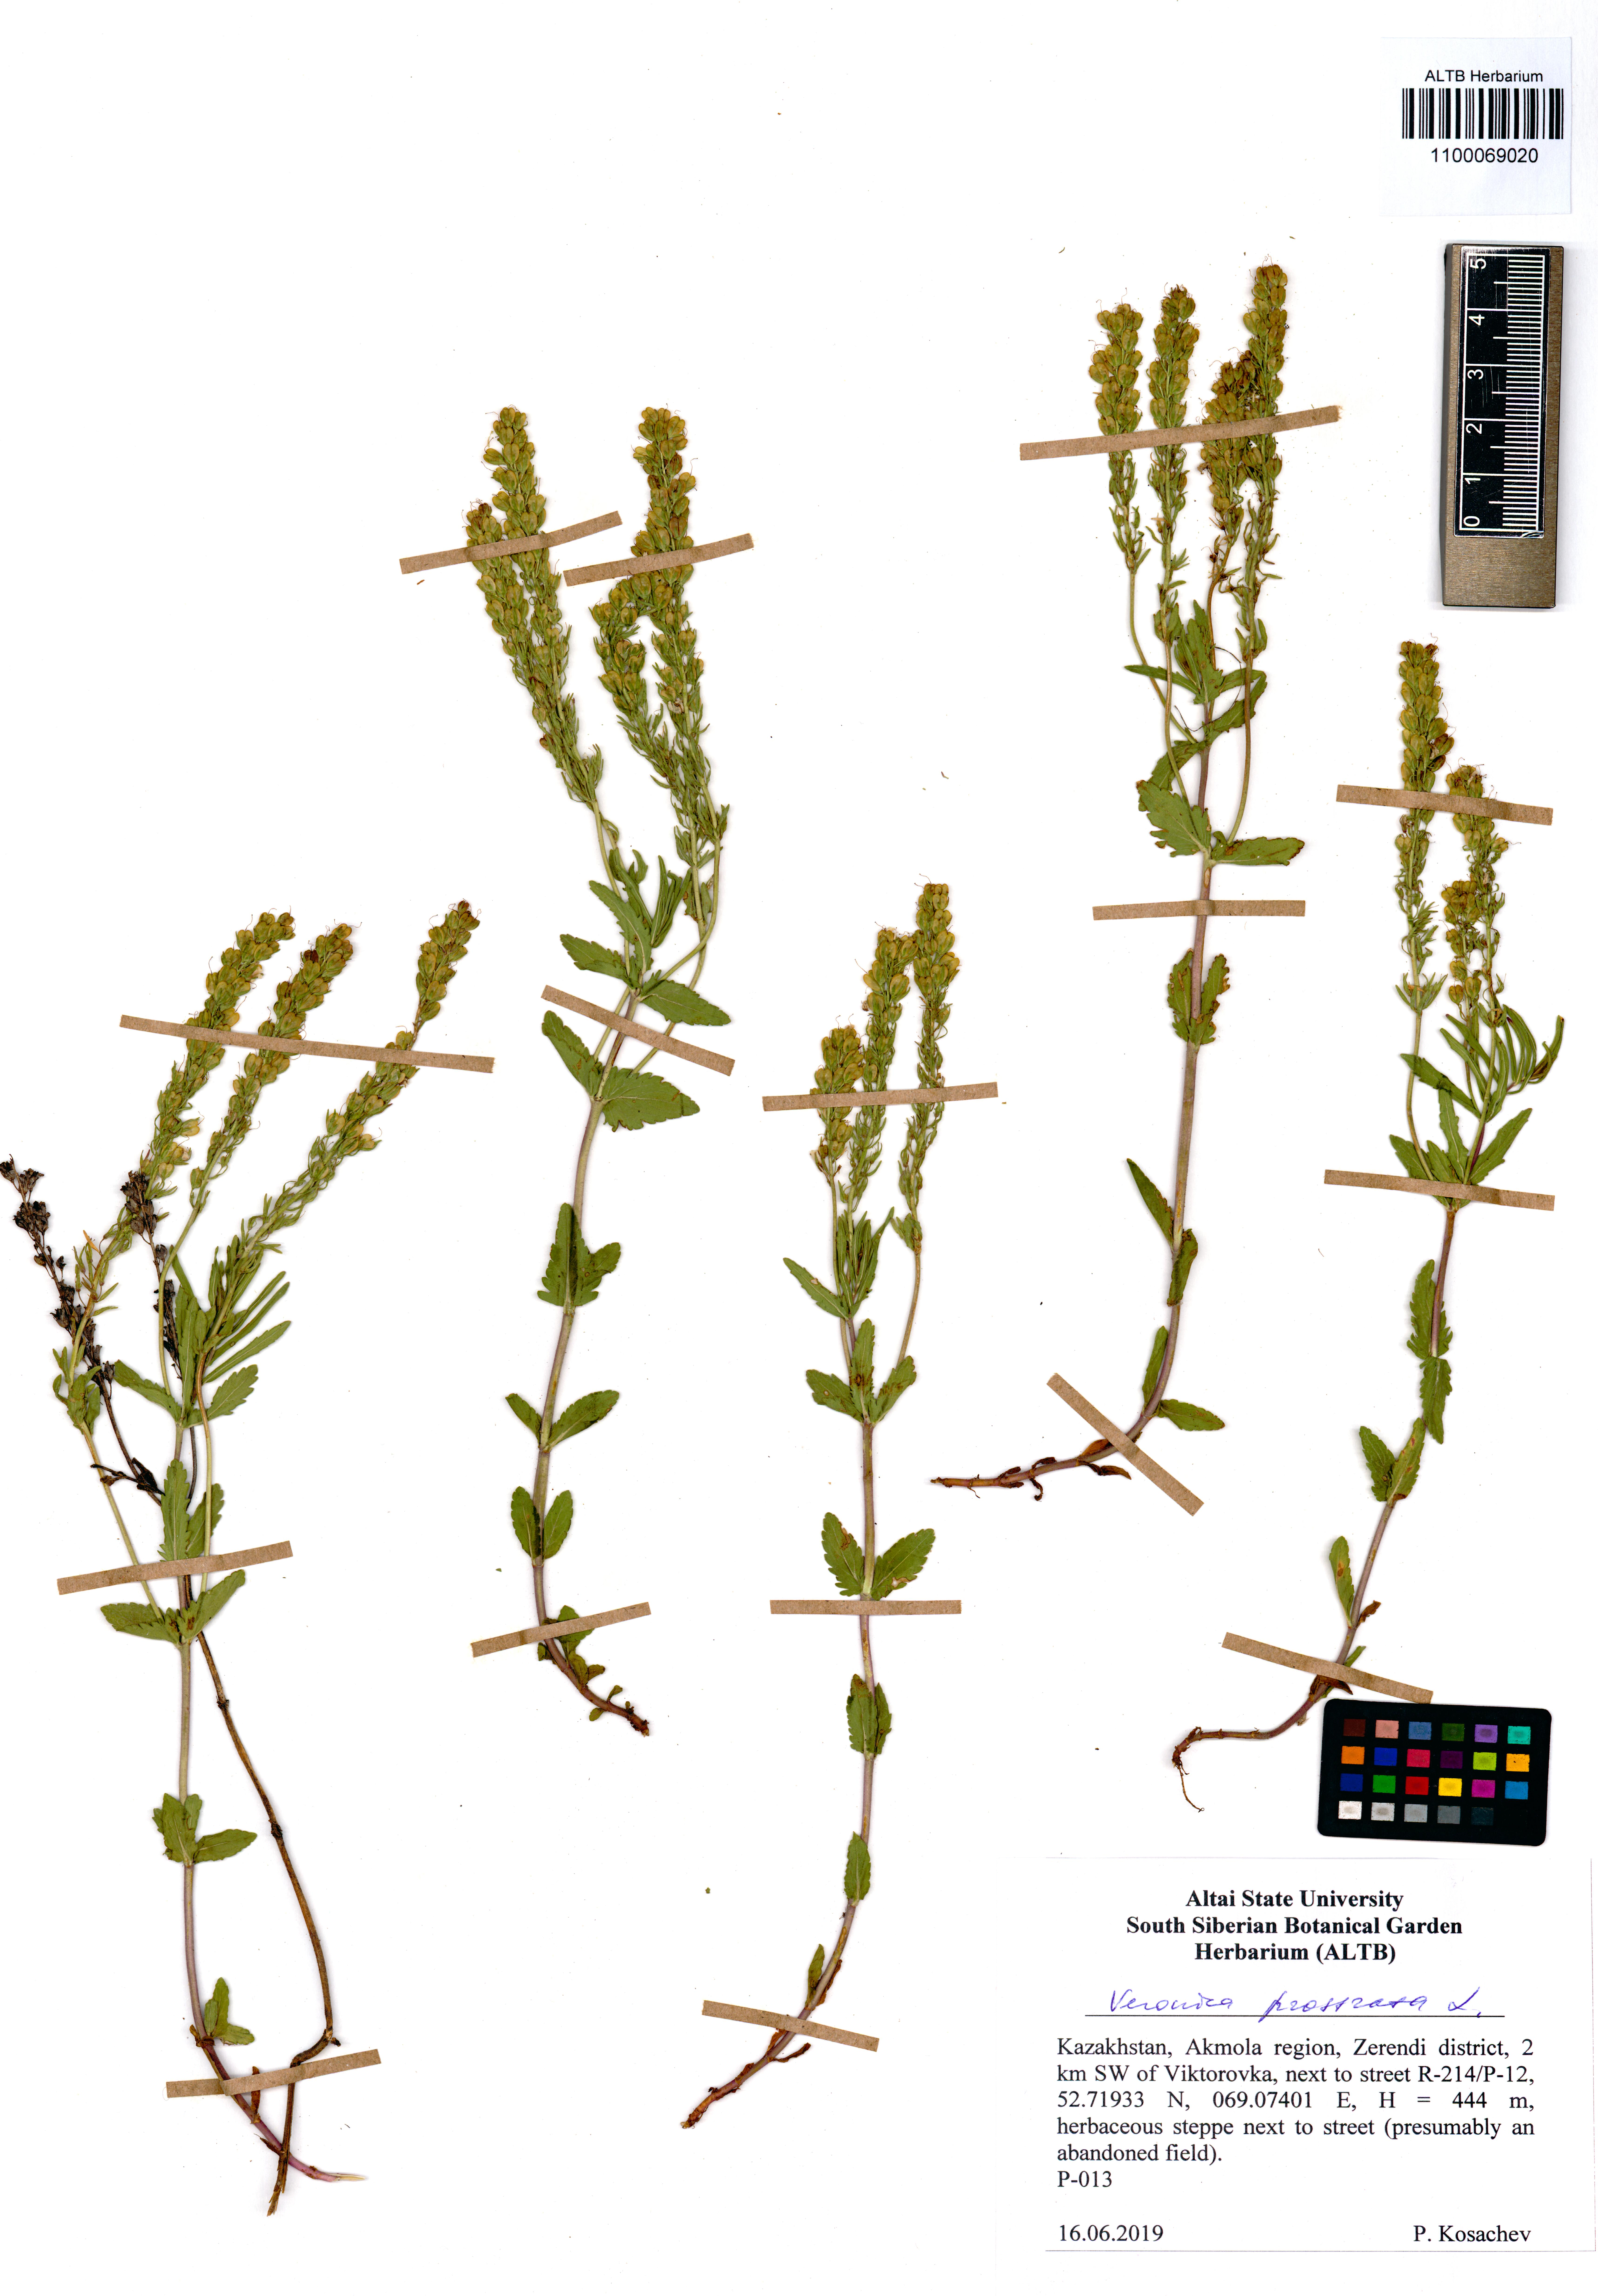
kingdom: Plantae
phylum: Tracheophyta
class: Magnoliopsida
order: Lamiales
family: Plantaginaceae
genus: Veronica
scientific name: Veronica prostrata
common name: Prostrate speedwell
